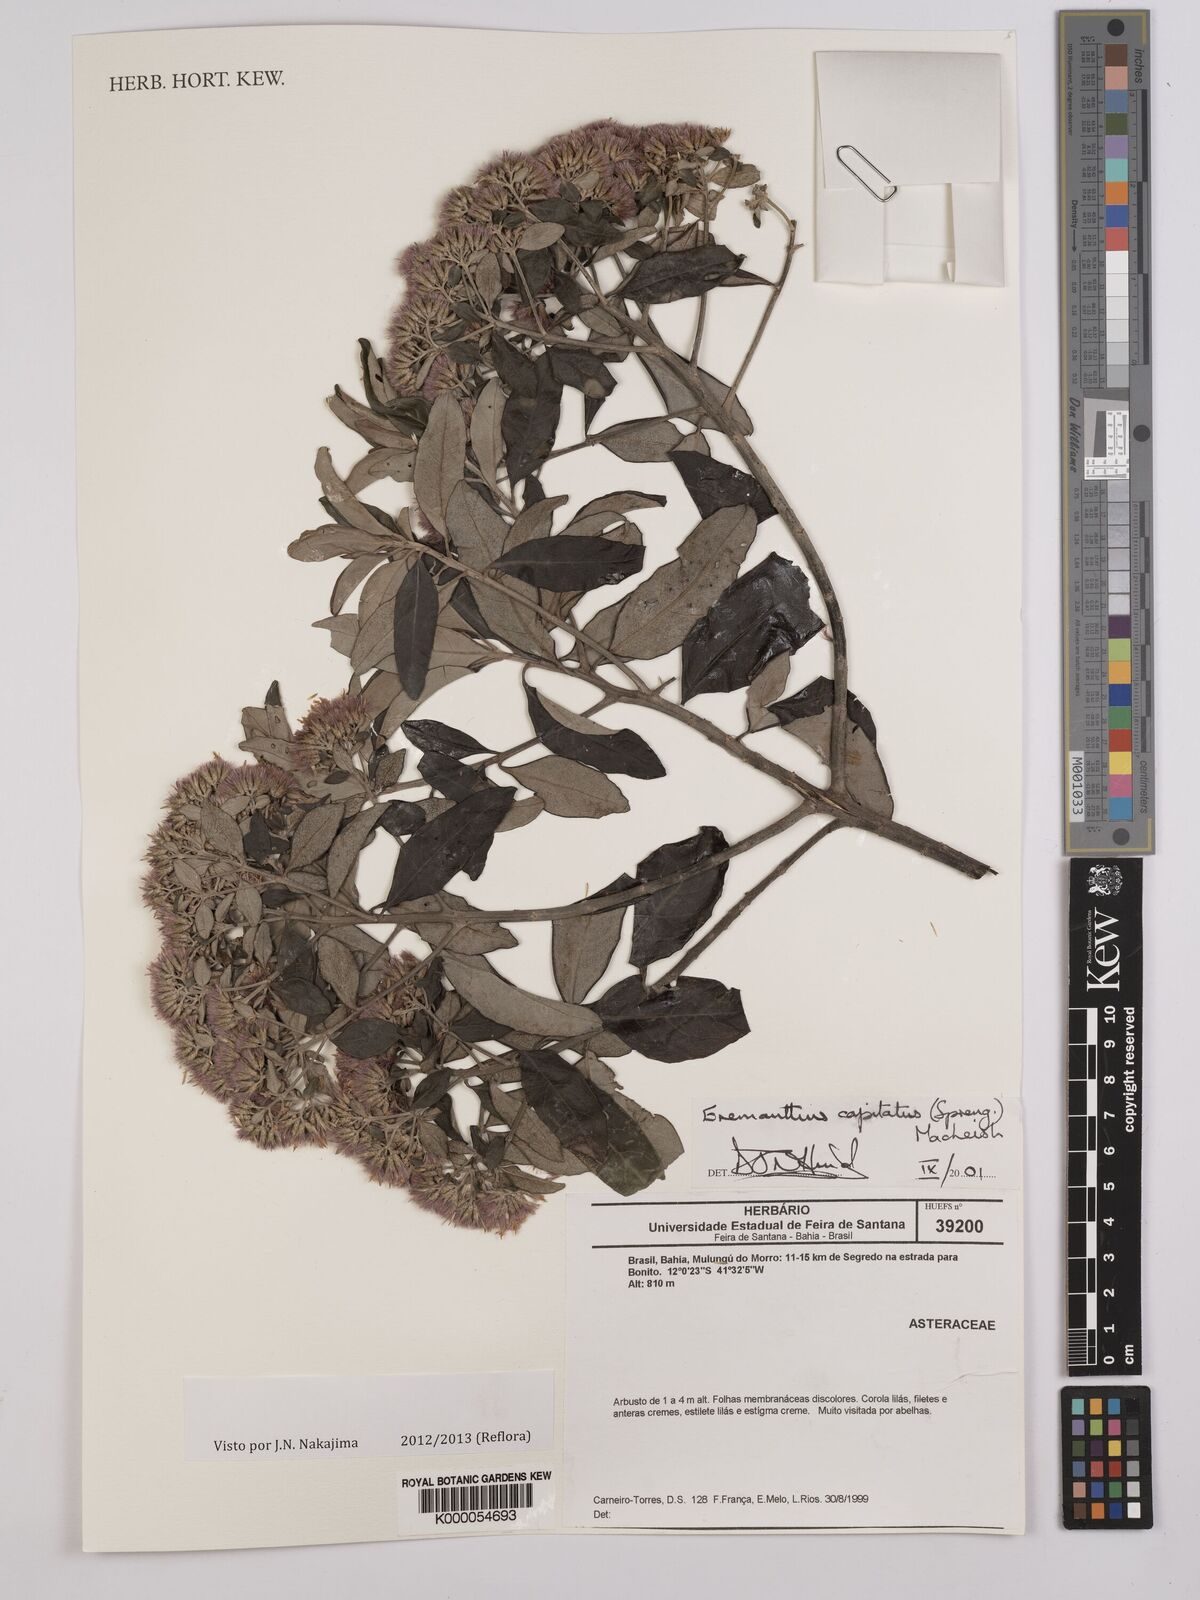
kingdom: Plantae
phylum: Tracheophyta
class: Magnoliopsida
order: Asterales
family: Asteraceae
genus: Eremanthus
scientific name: Eremanthus capitatus
